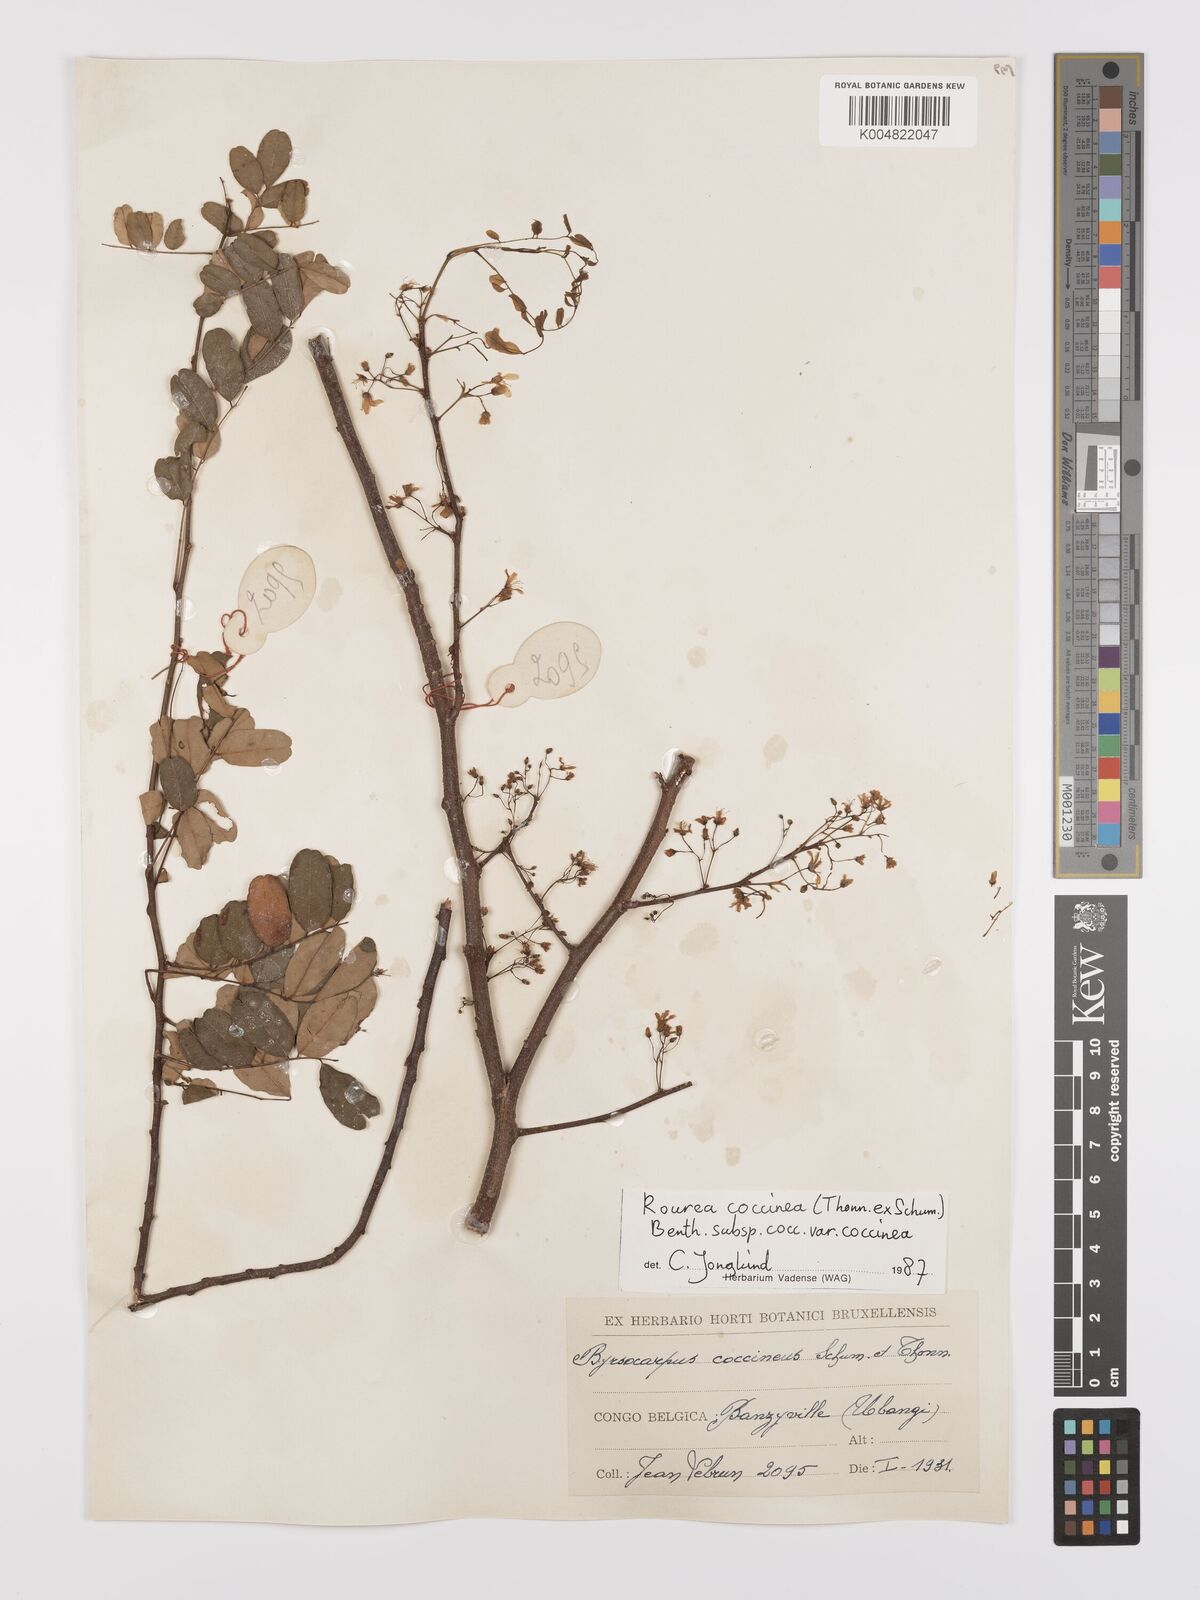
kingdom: Plantae
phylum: Tracheophyta
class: Magnoliopsida
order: Oxalidales
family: Connaraceae
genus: Rourea
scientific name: Rourea coccinea
